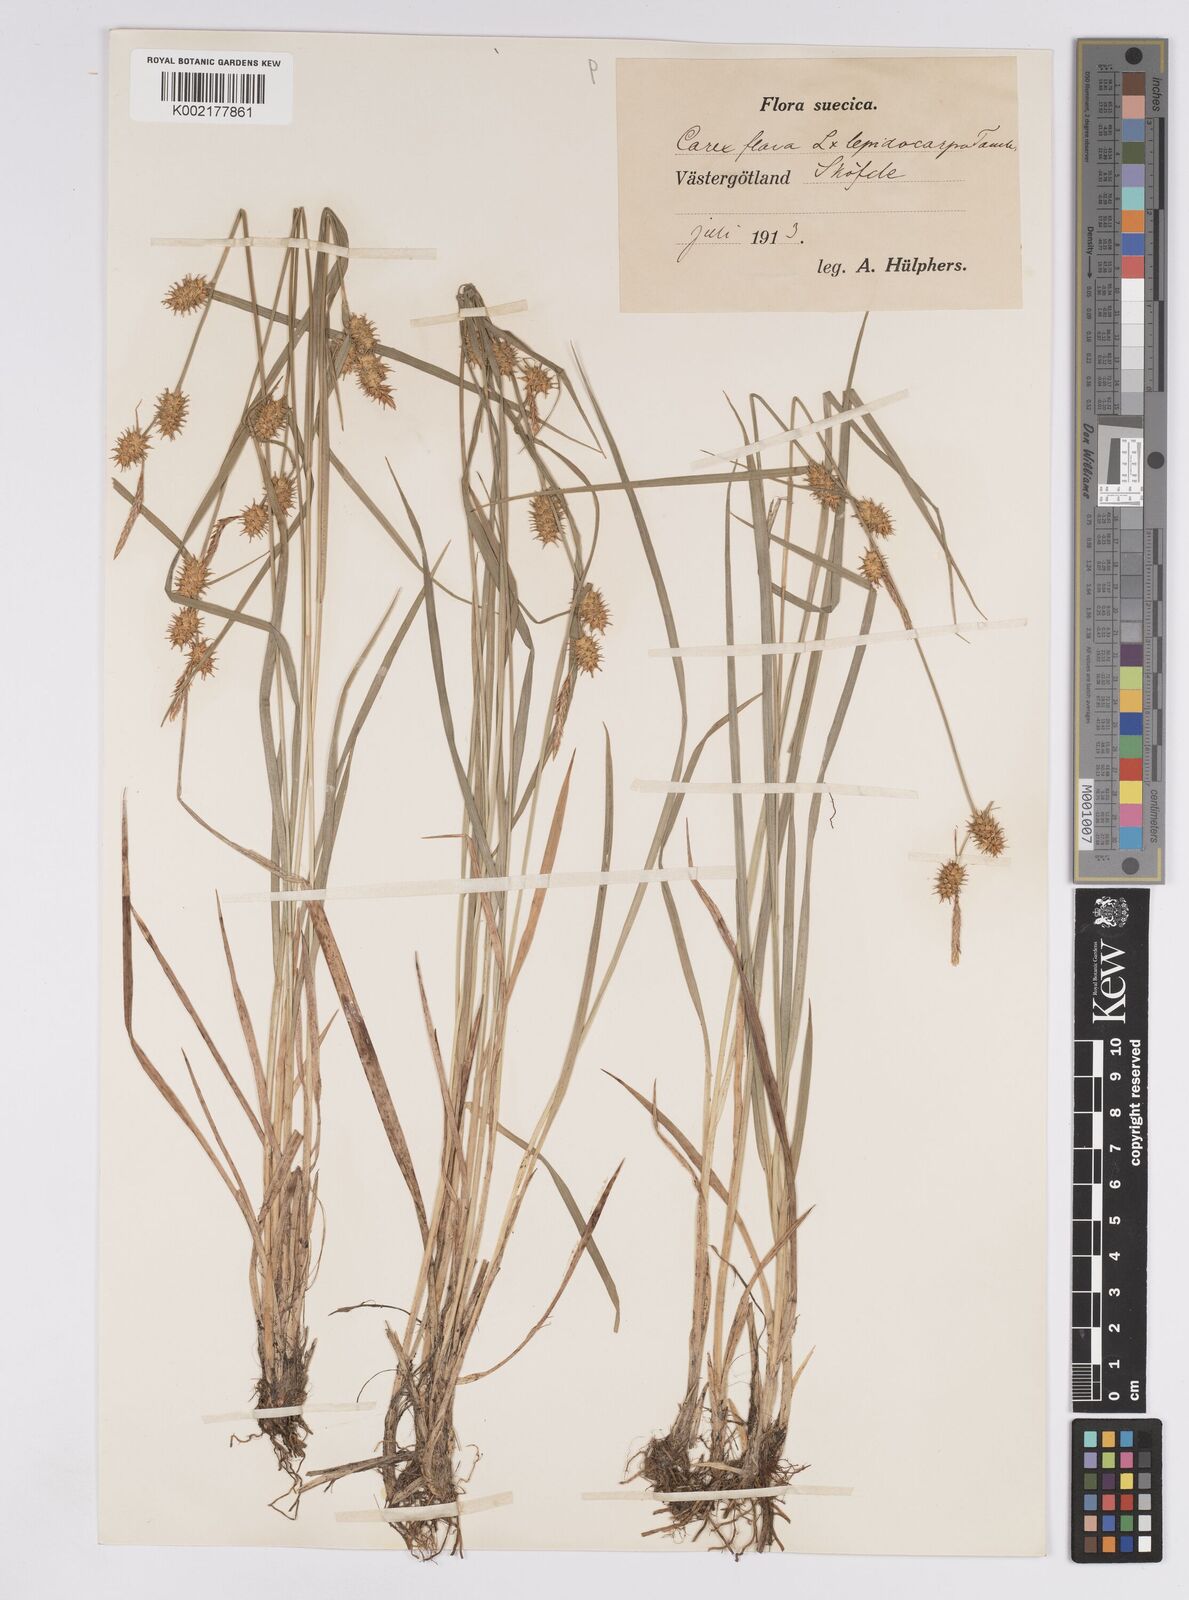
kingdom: Plantae
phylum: Tracheophyta
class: Liliopsida
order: Poales
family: Cyperaceae
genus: Carex
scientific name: Carex flava
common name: Large yellow-sedge
